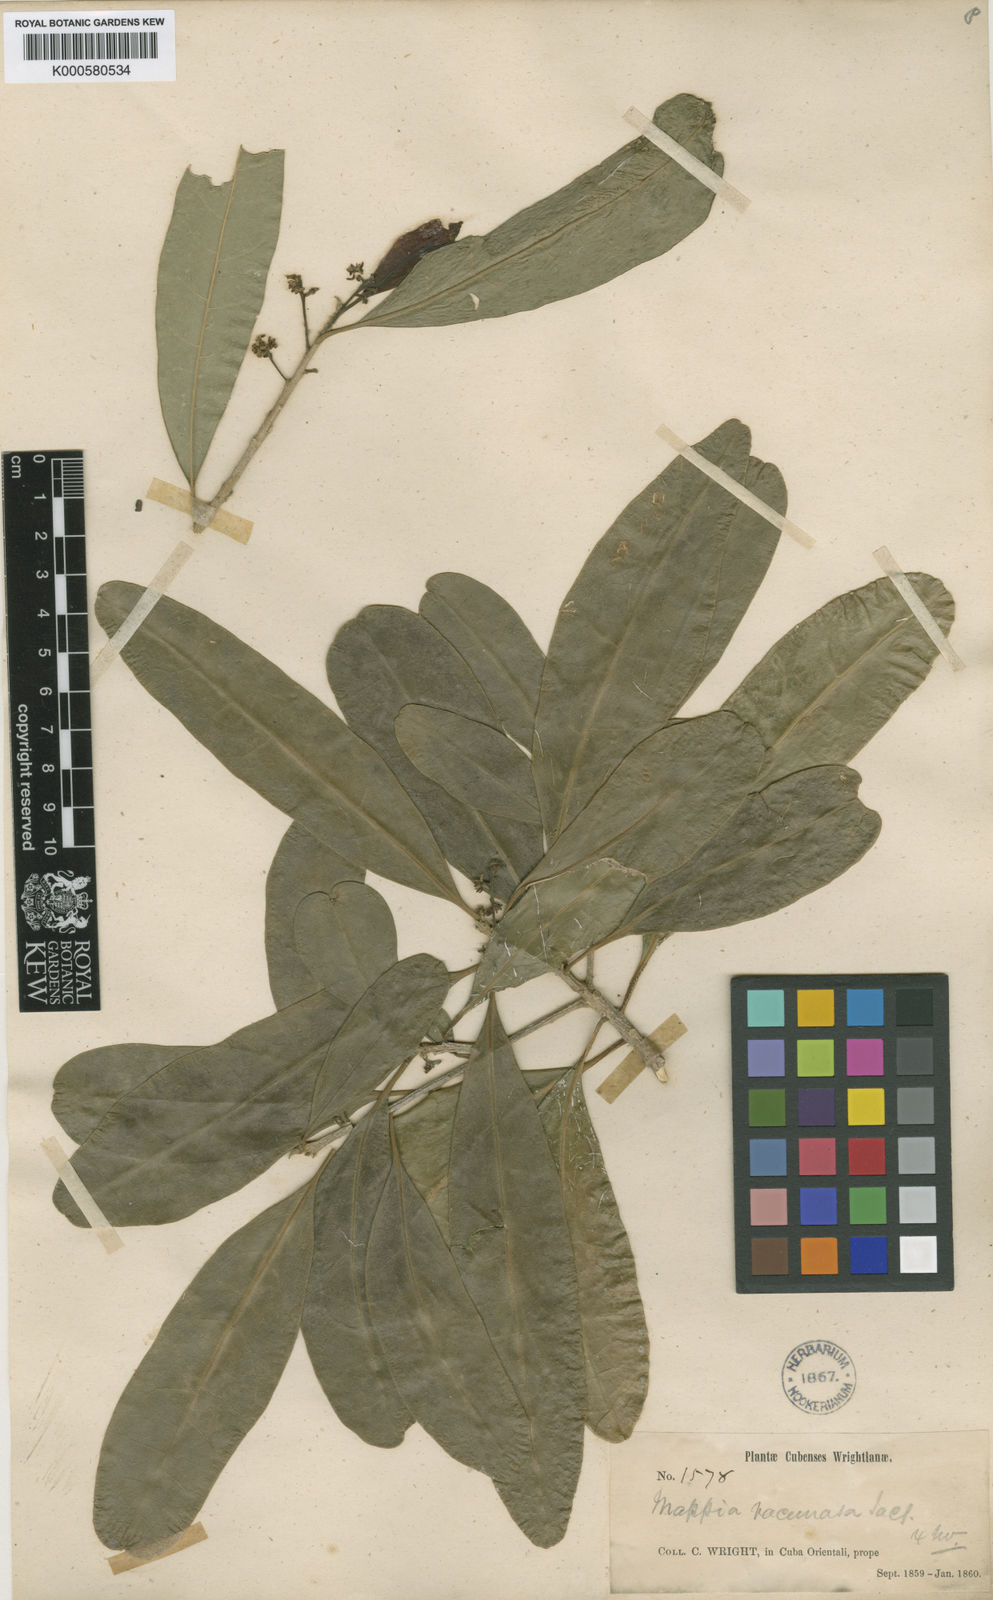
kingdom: Plantae
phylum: Tracheophyta
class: Magnoliopsida
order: Icacinales
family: Icacinaceae
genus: Mappia
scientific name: Mappia racemosa
